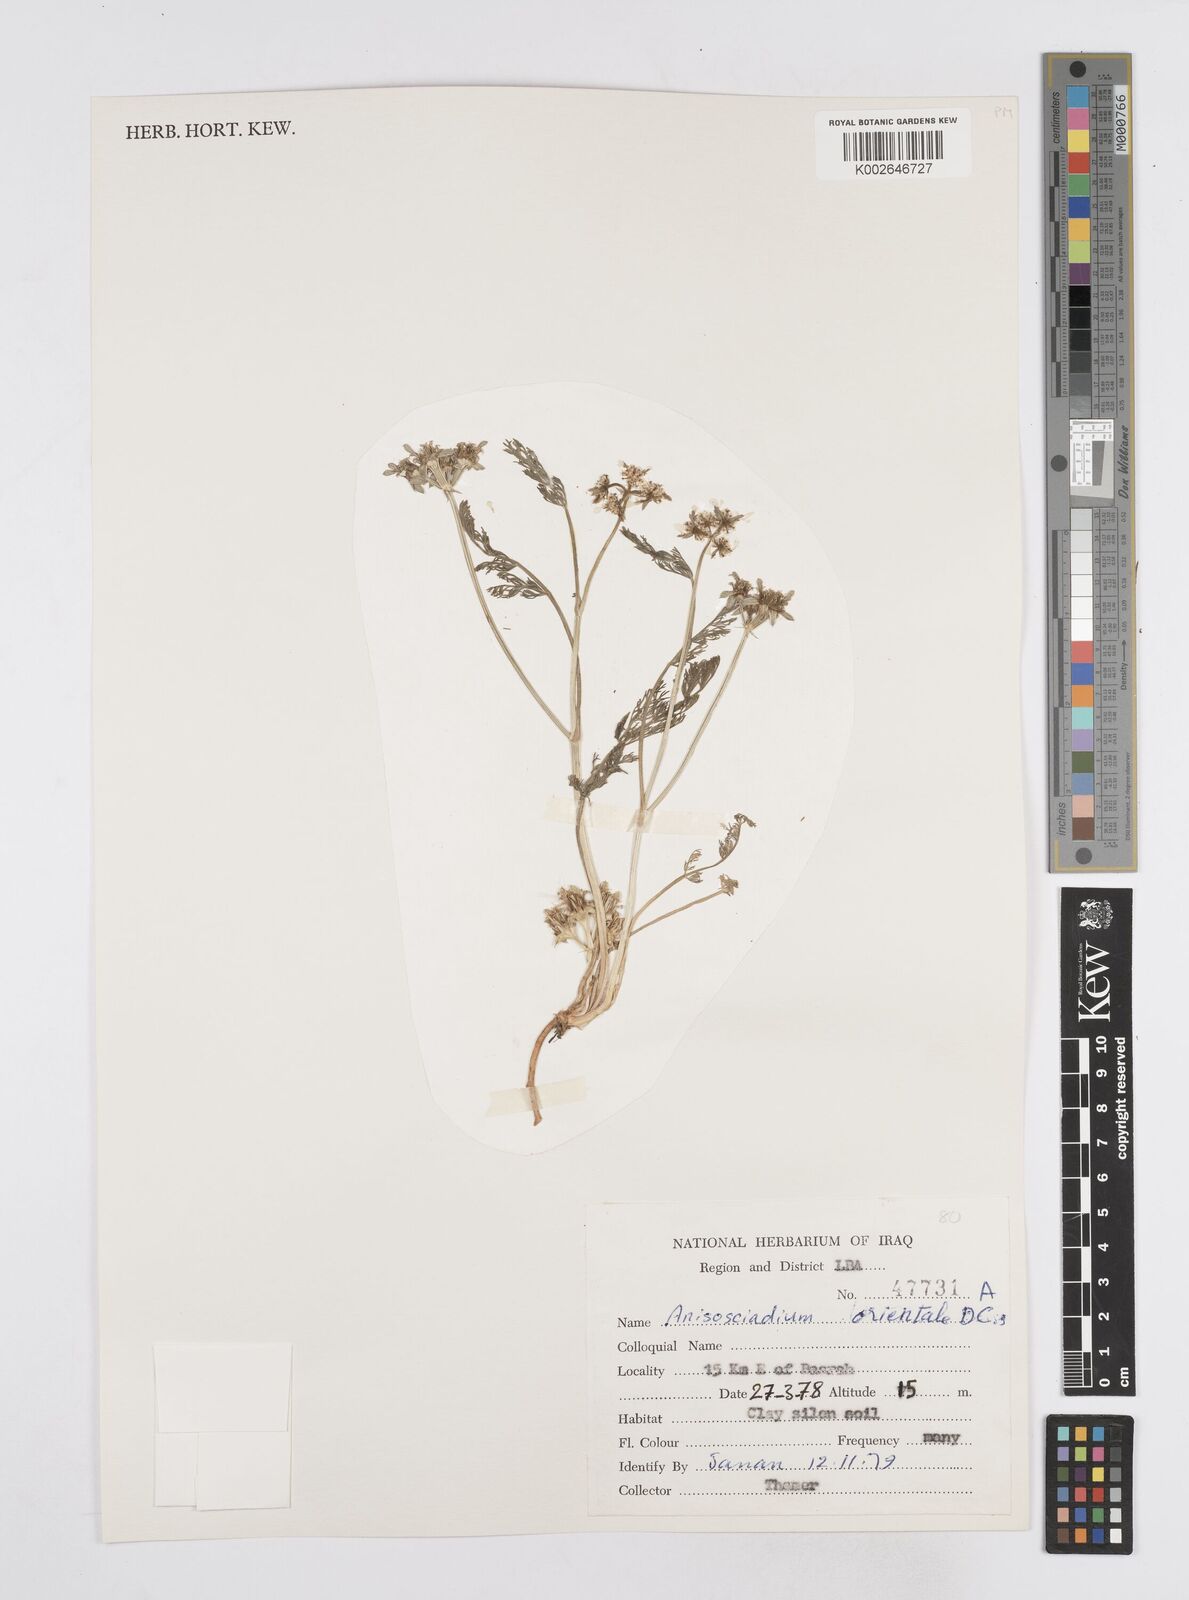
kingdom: Plantae
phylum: Tracheophyta
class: Magnoliopsida
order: Apiales
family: Apiaceae
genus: Anisosciadium
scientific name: Anisosciadium orientale
